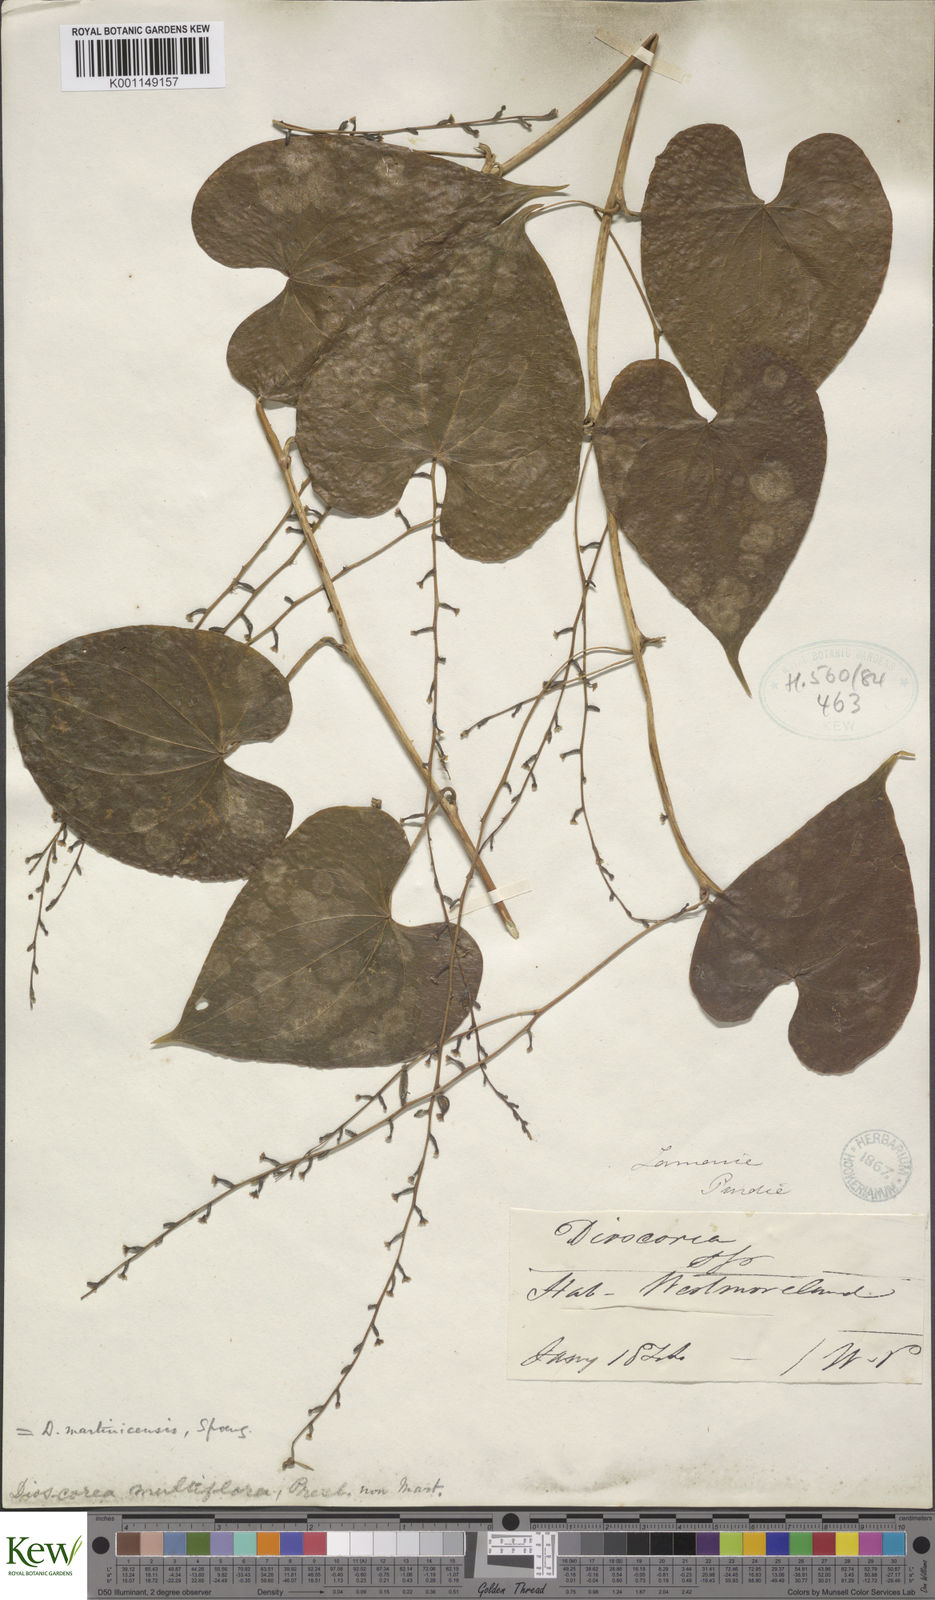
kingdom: Plantae
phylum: Tracheophyta
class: Liliopsida
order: Dioscoreales
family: Dioscoreaceae
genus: Dioscorea
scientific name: Dioscorea polygonoides
